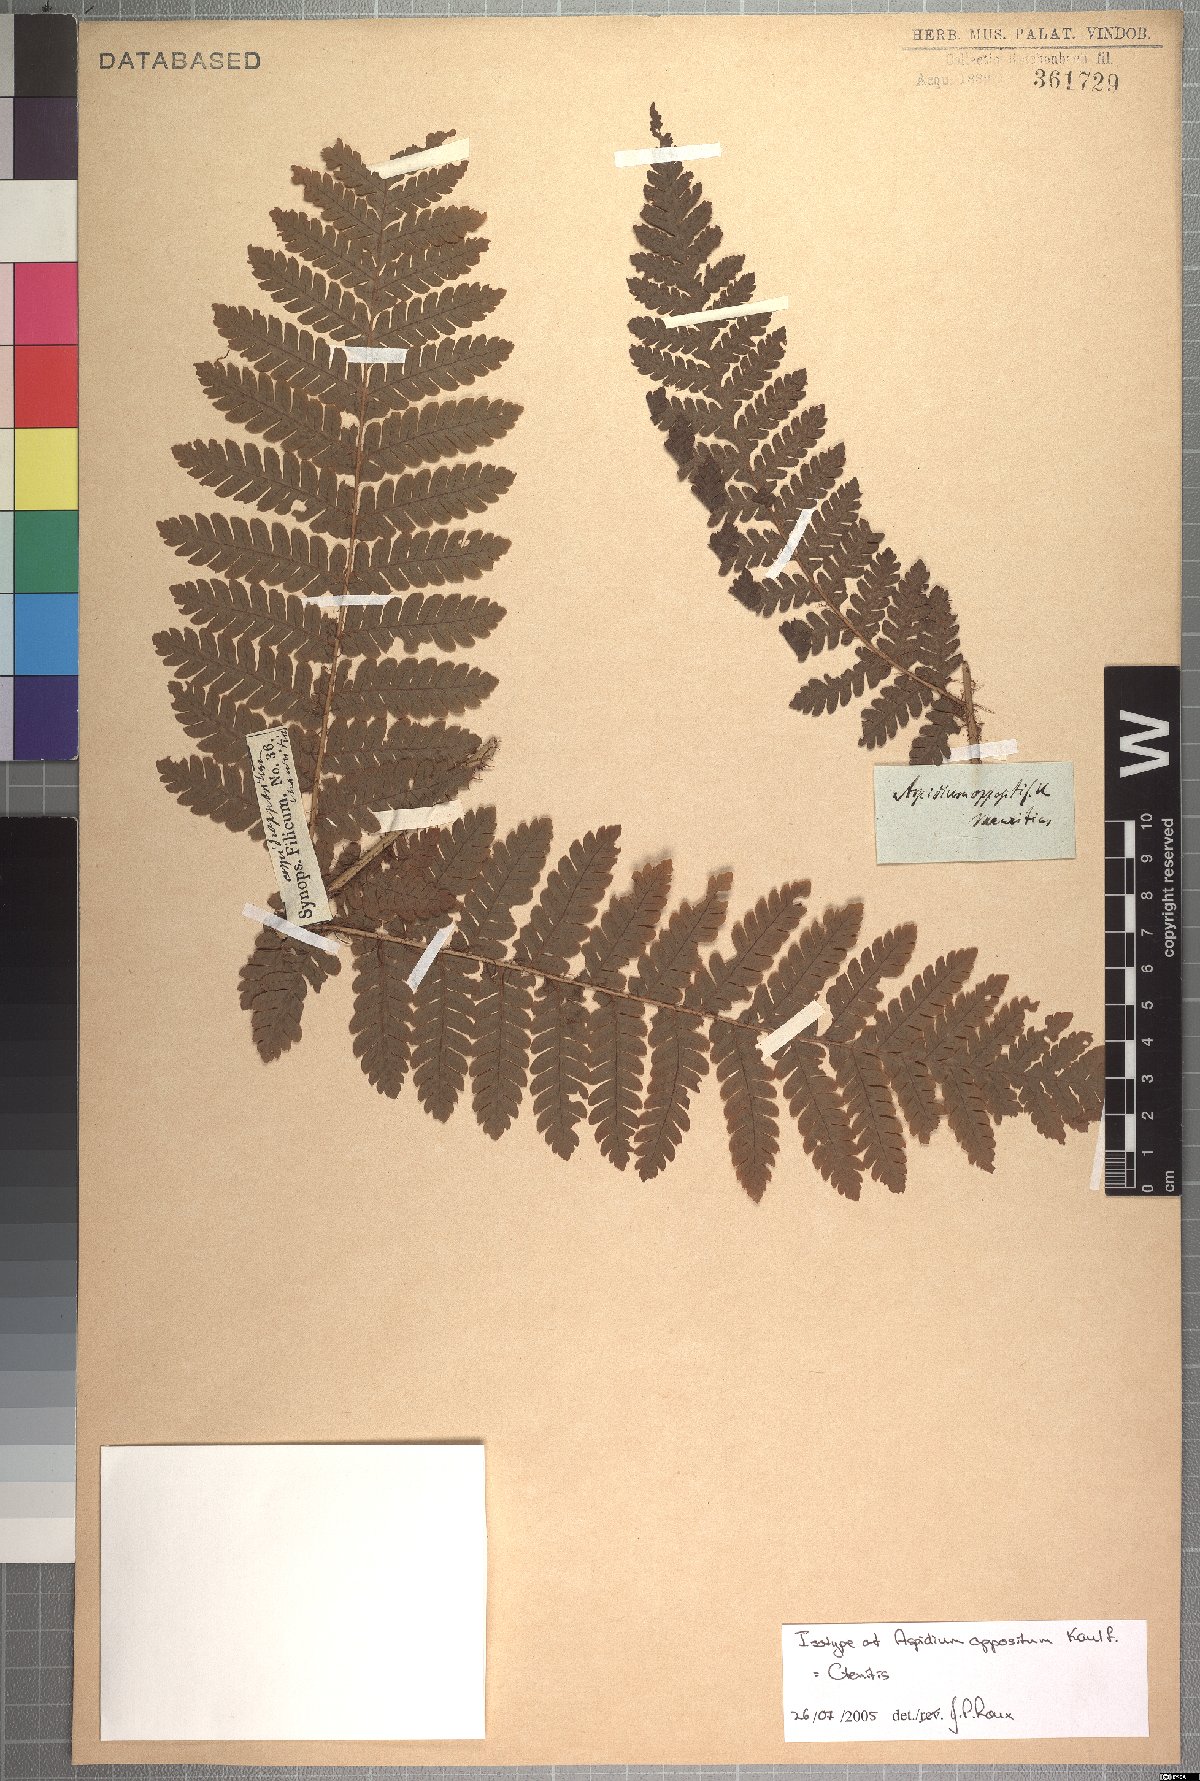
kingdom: Plantae
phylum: Tracheophyta
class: Polypodiopsida
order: Polypodiales
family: Dryopteridaceae
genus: Ctenitis
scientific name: Ctenitis
